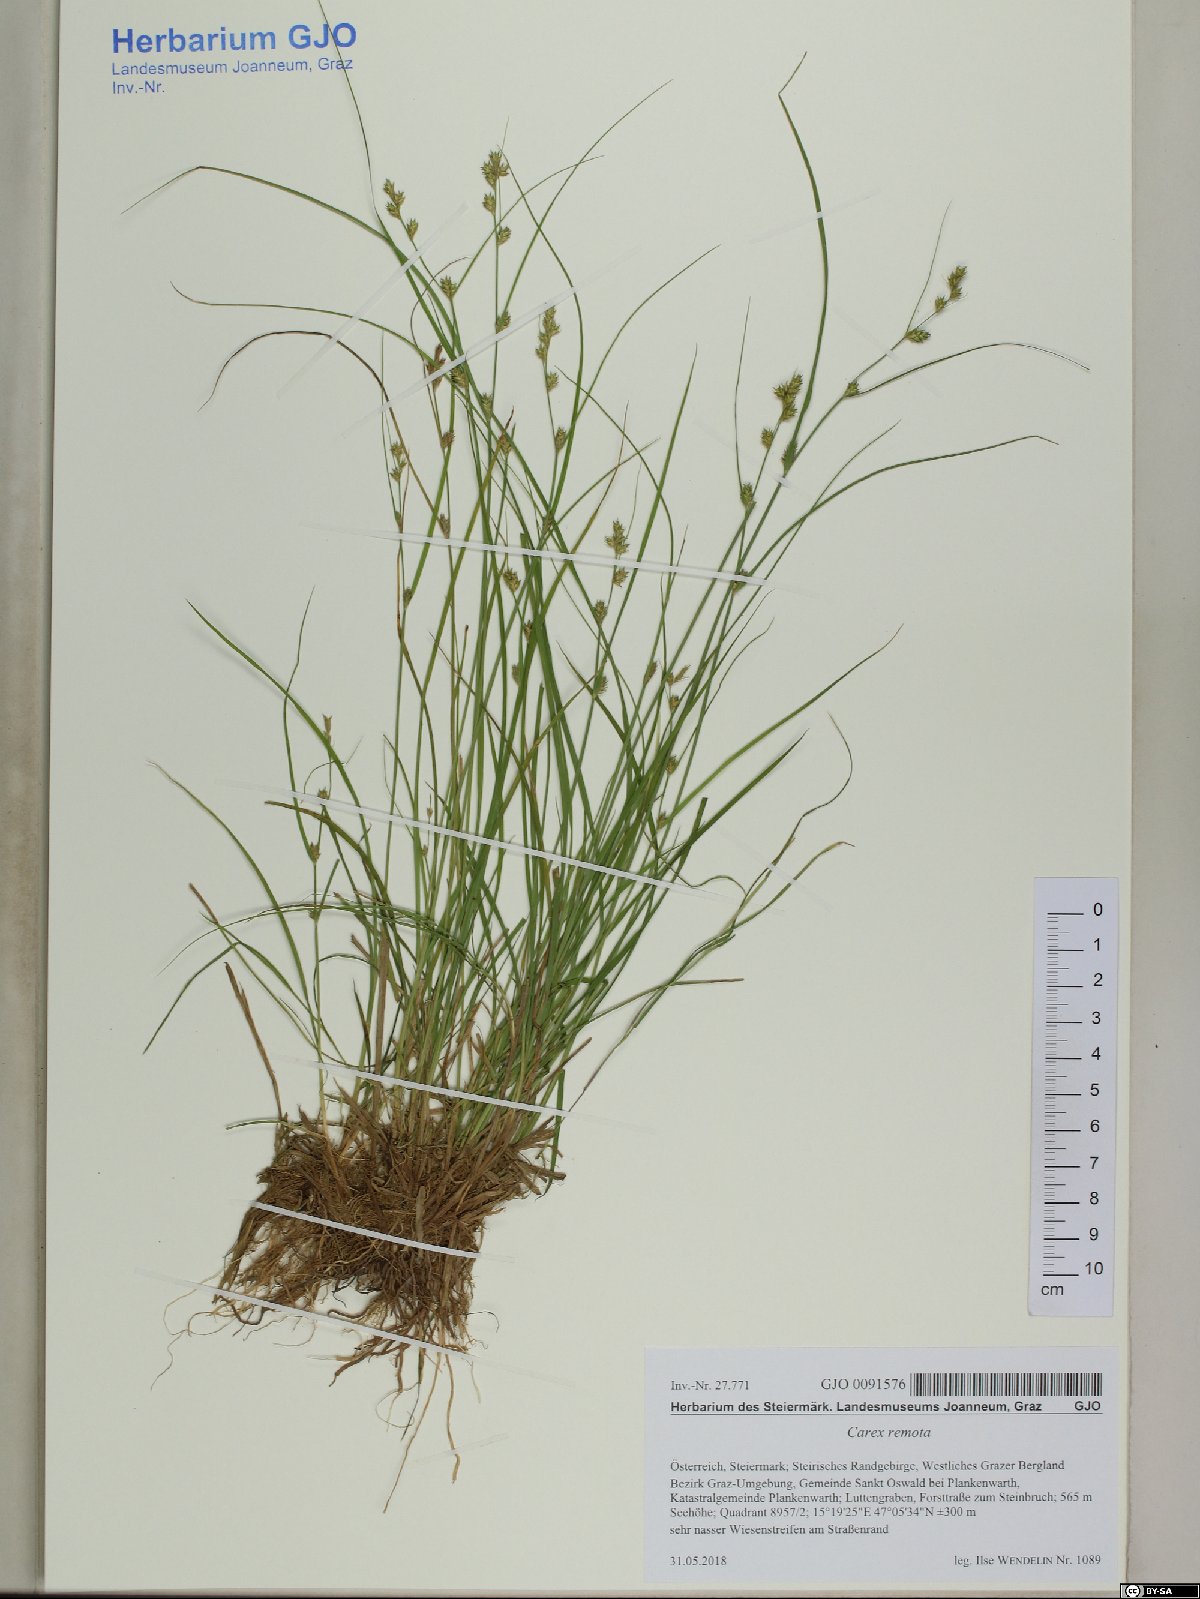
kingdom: Plantae
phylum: Tracheophyta
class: Liliopsida
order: Poales
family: Cyperaceae
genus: Carex
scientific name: Carex remota
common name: Remote sedge
